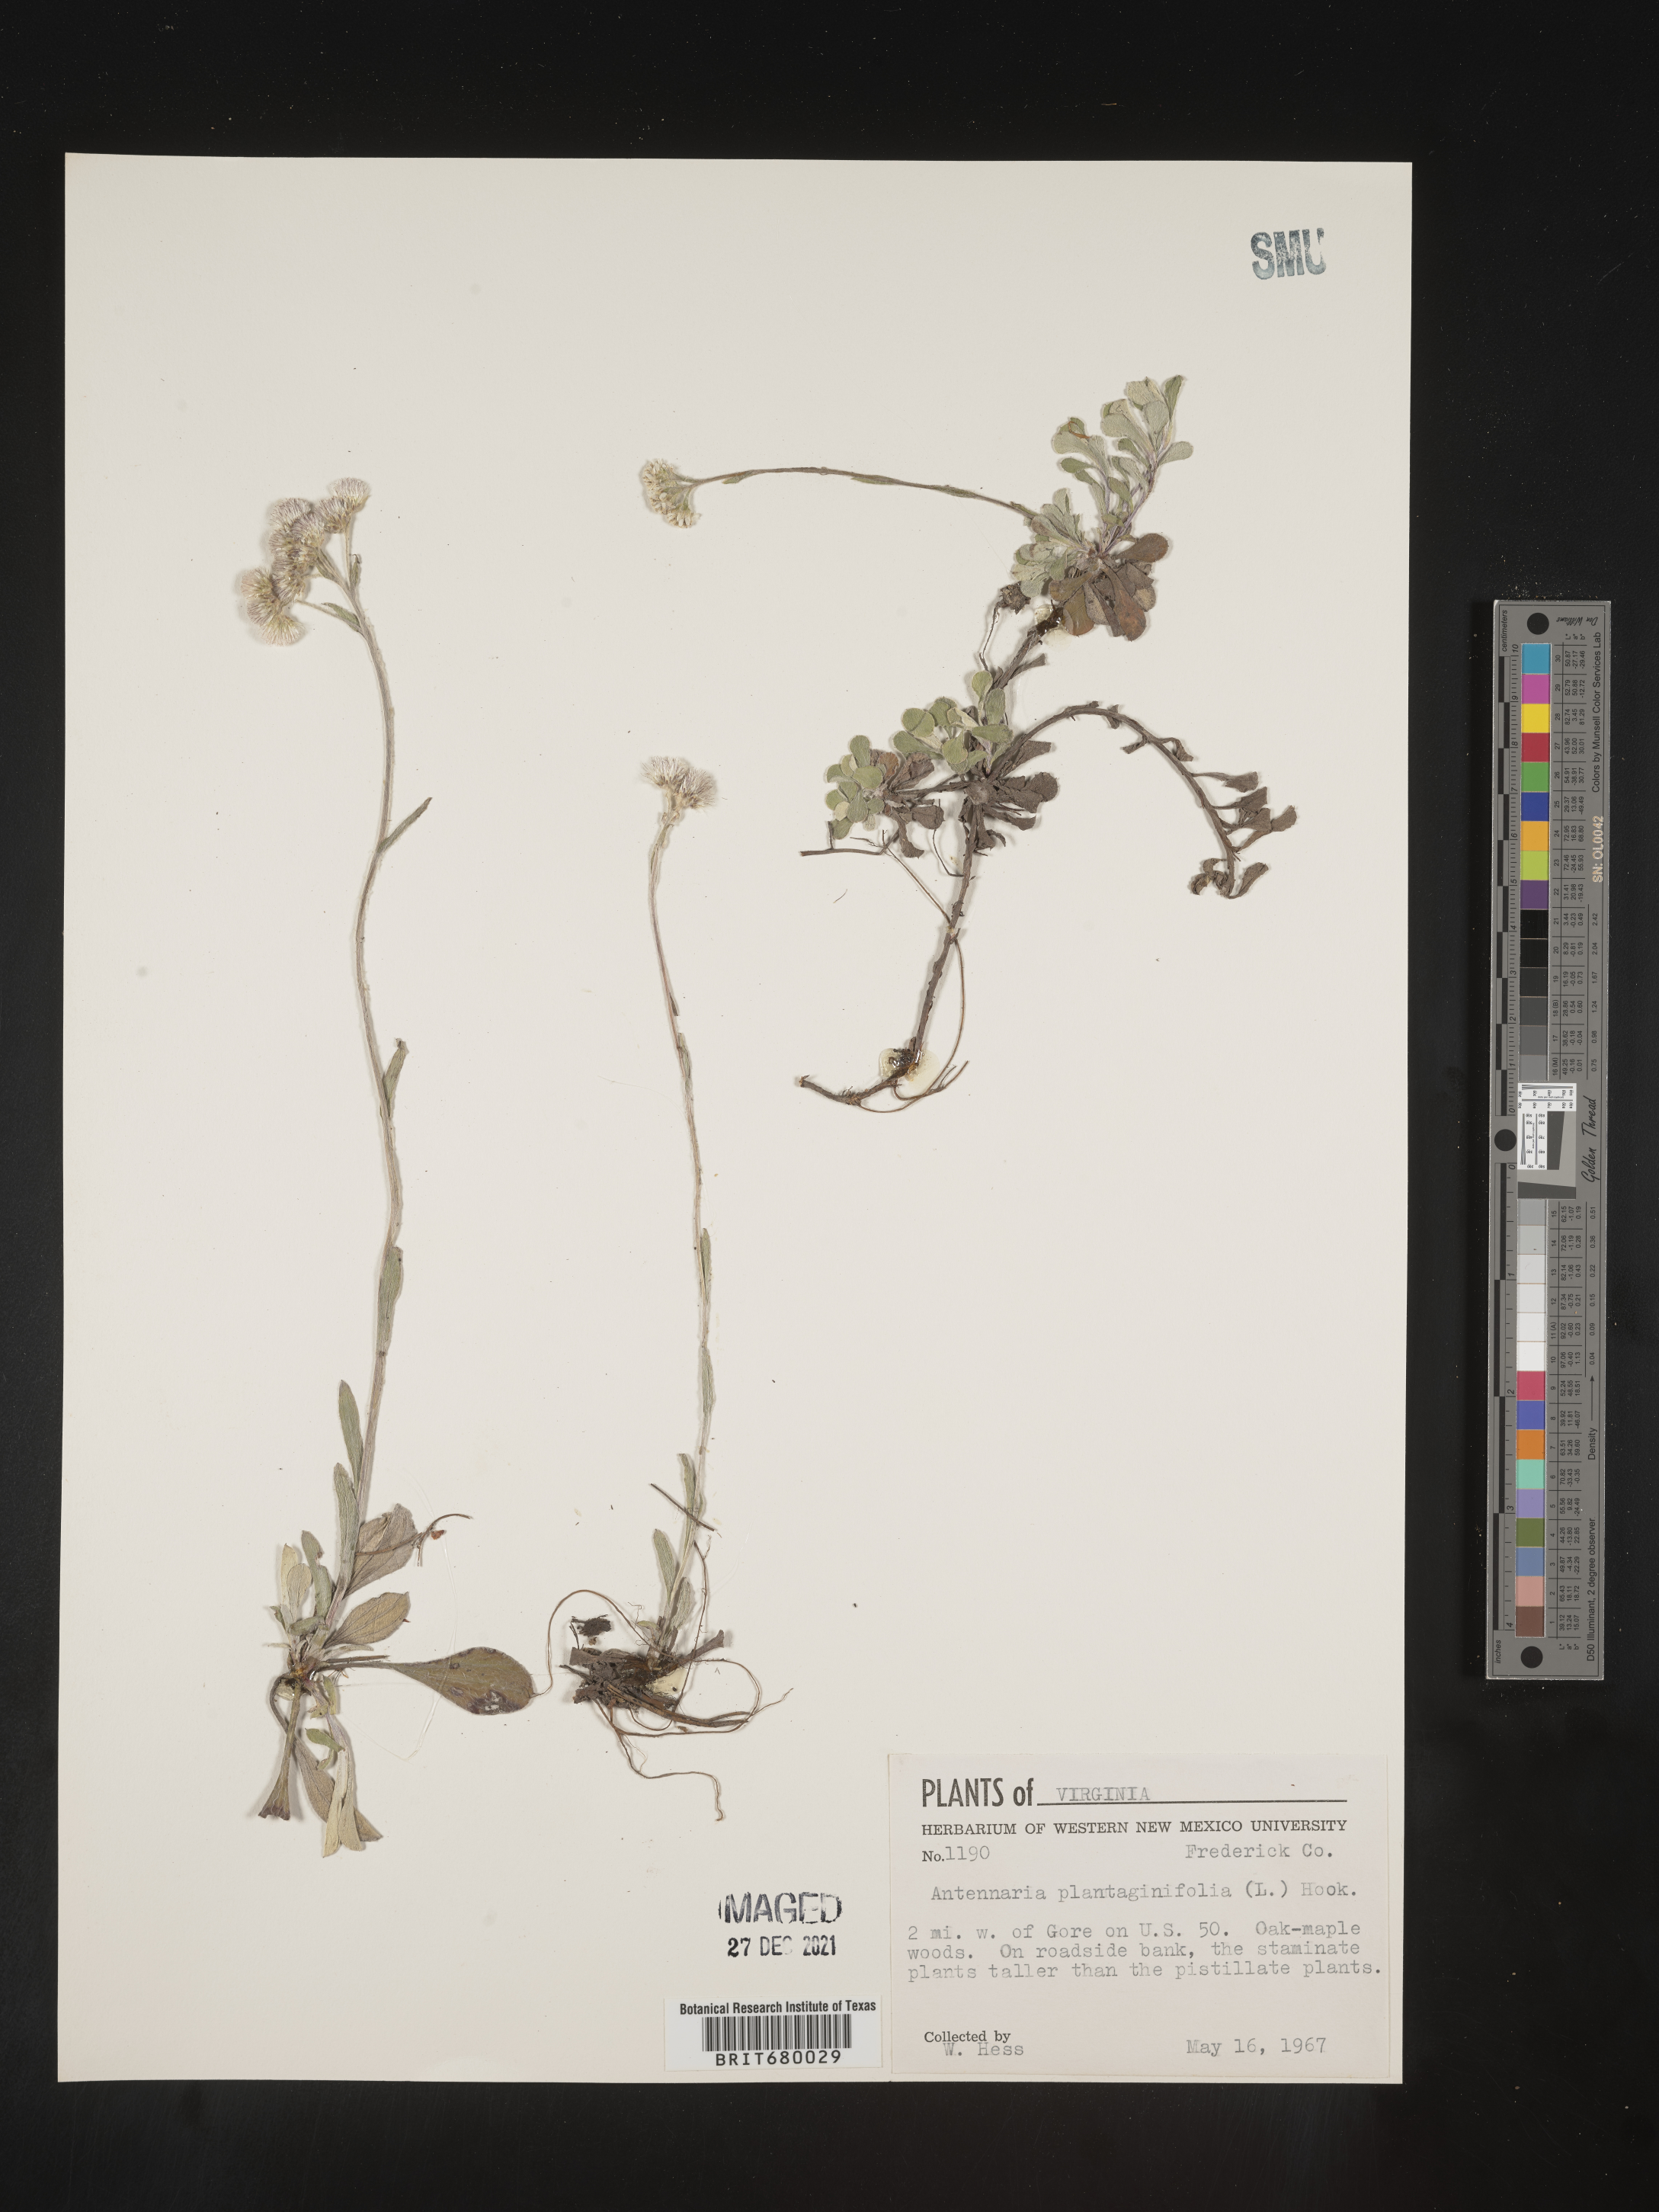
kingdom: Plantae
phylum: Tracheophyta
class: Magnoliopsida
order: Asterales
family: Asteraceae
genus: Antennaria
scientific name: Antennaria plantaginifolia
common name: Plantain-leaved pussytoes
